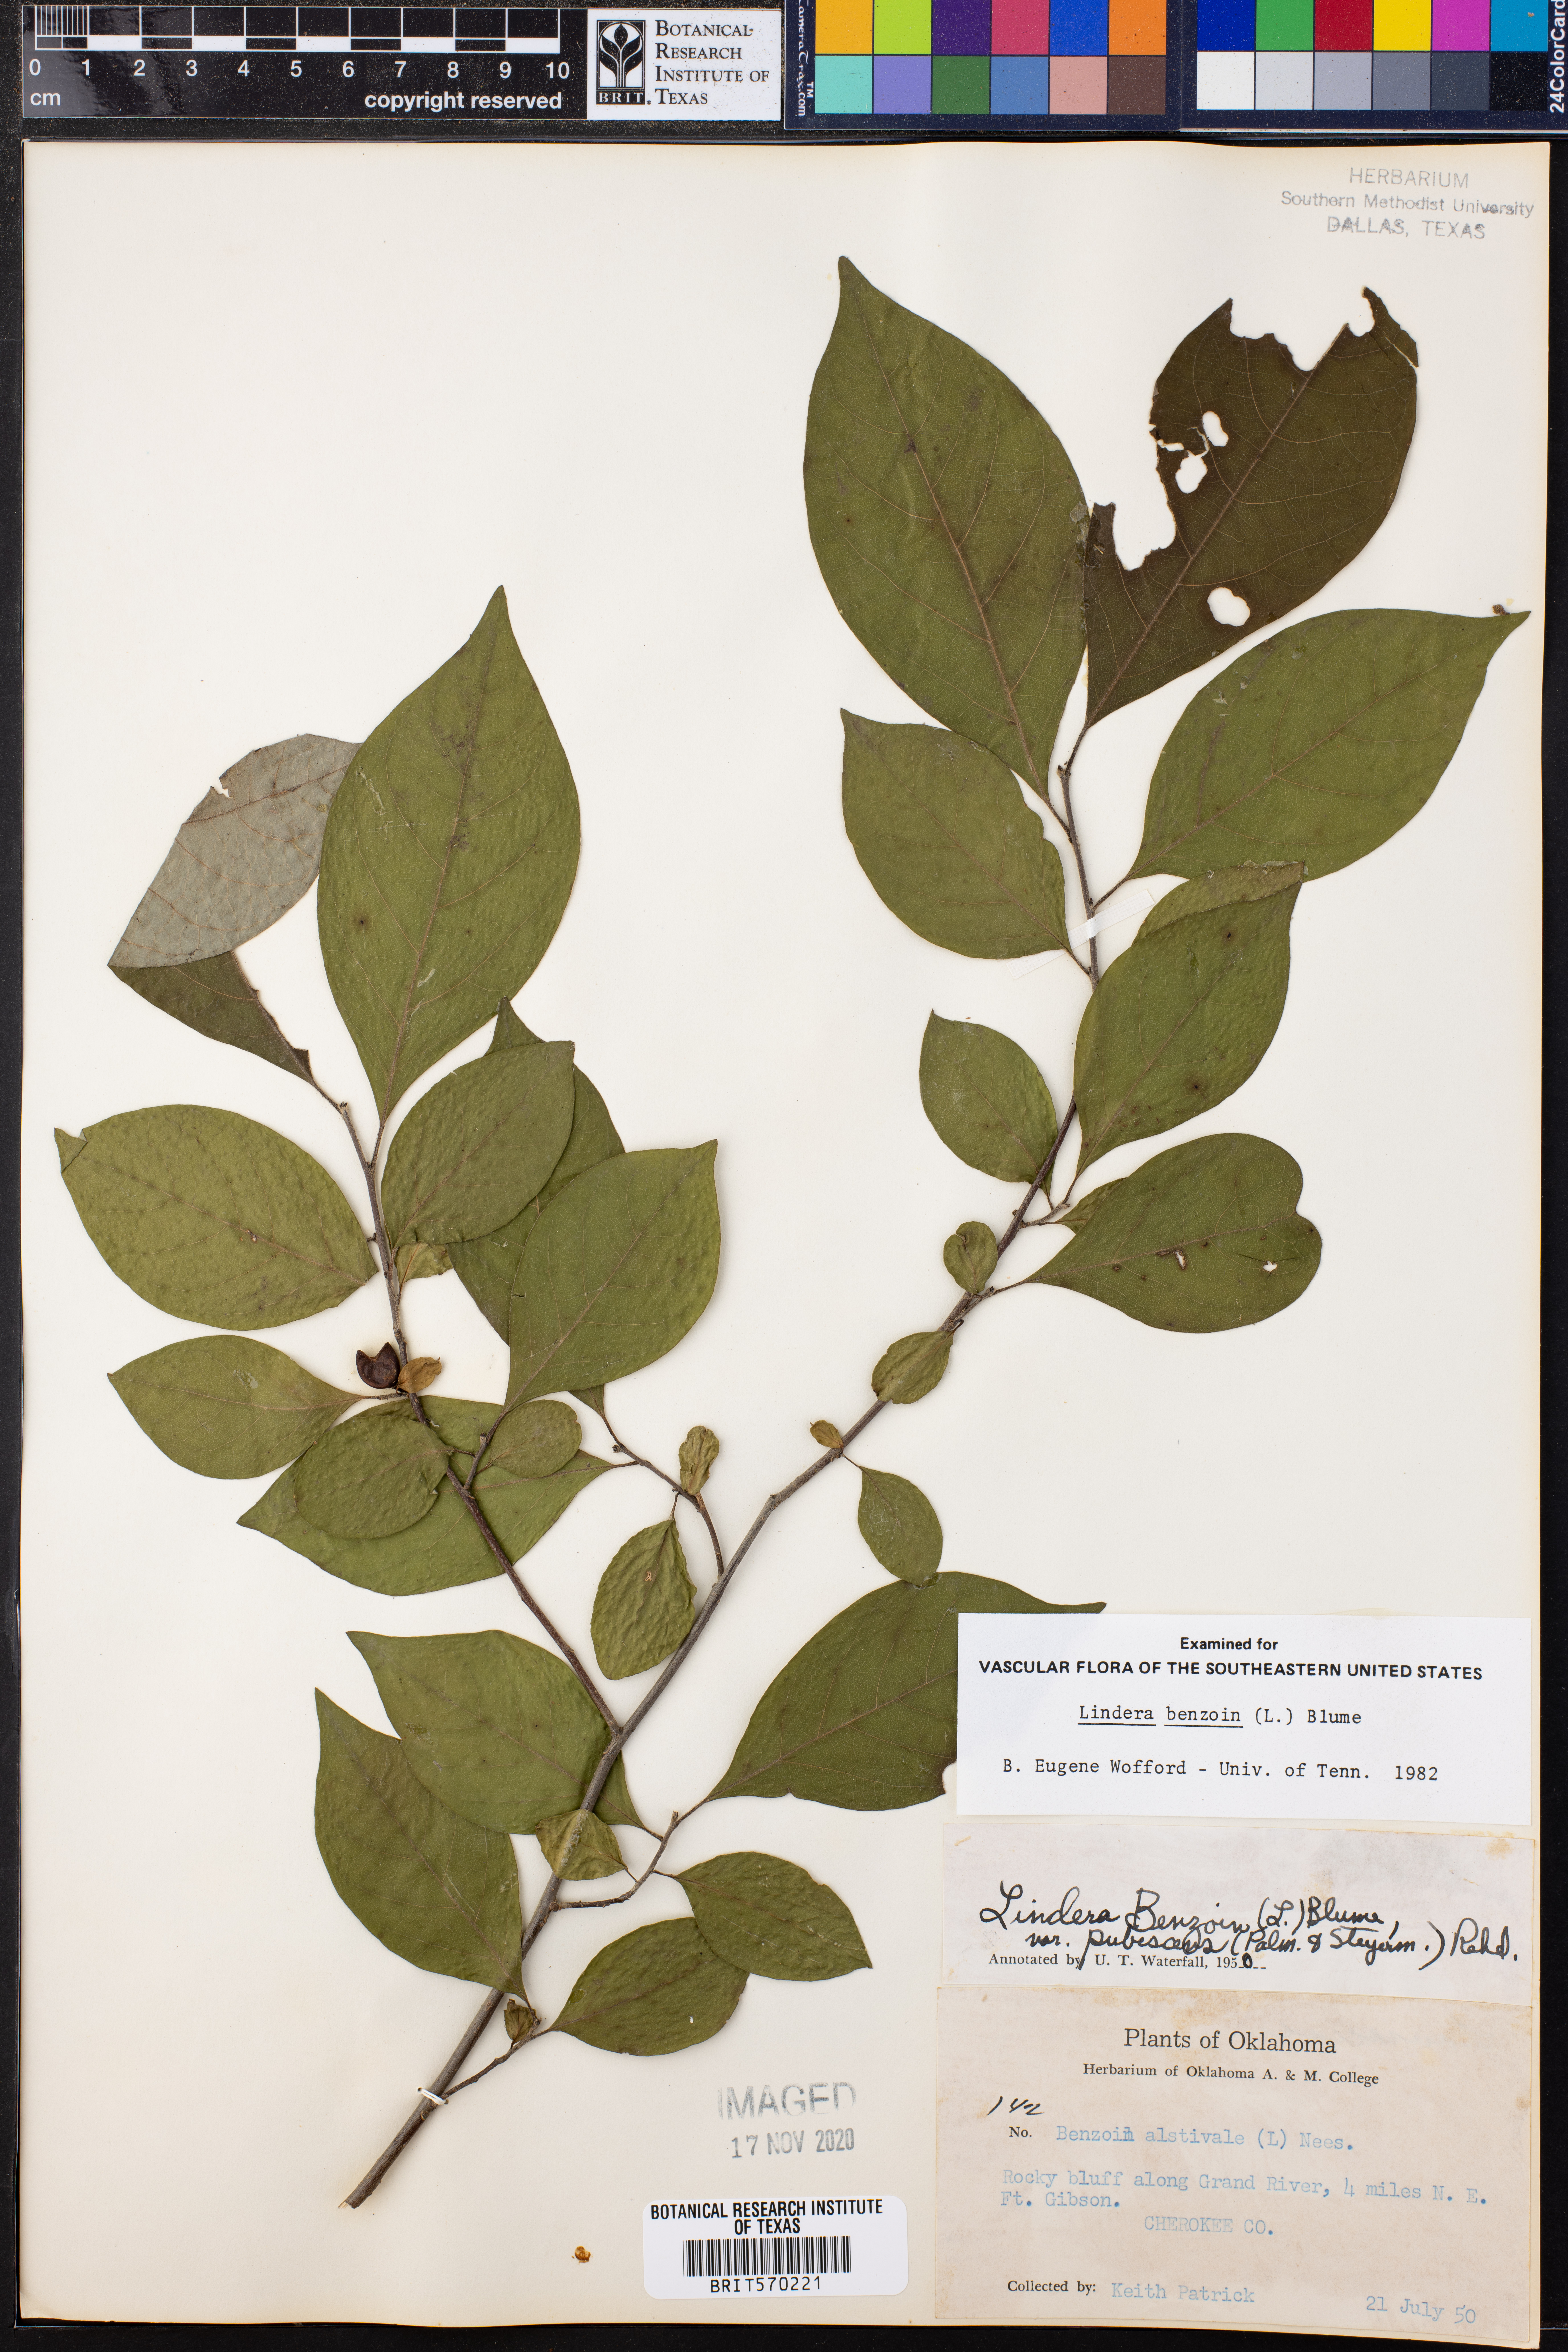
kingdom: Plantae
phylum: Tracheophyta
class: Magnoliopsida
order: Laurales
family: Lauraceae
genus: Lindera
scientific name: Lindera benzoin
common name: Spicebush
